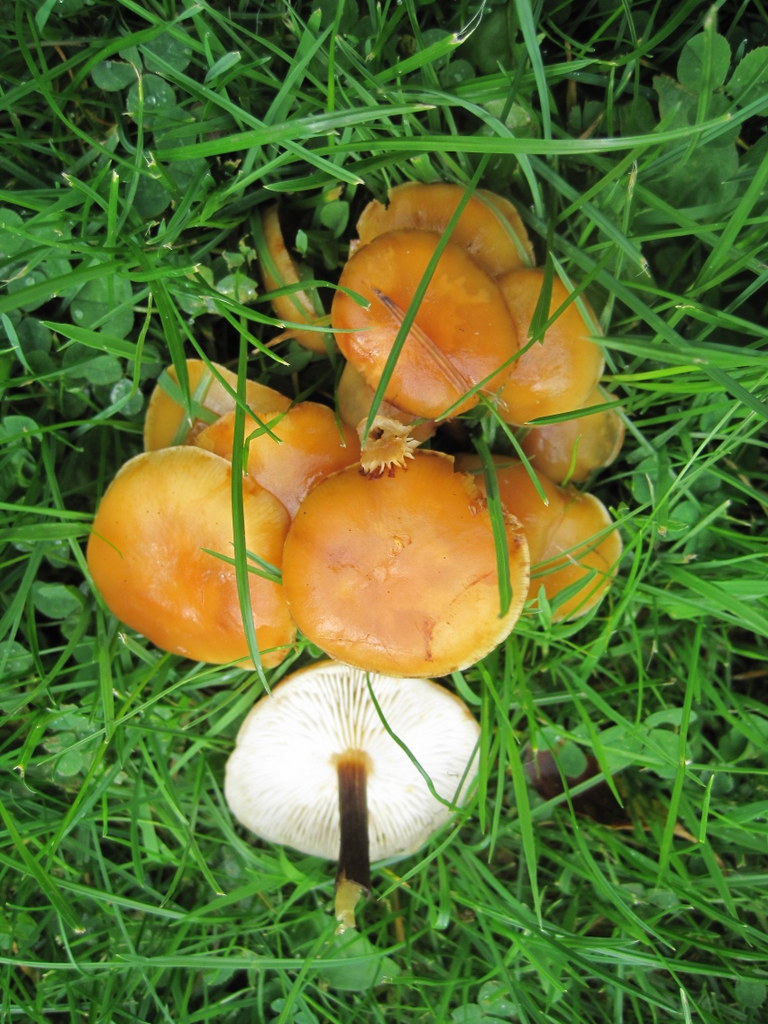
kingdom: Fungi
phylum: Basidiomycota
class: Agaricomycetes
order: Agaricales
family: Omphalotaceae
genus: Collybiopsis
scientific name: Collybiopsis confluens
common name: knippe-fladhat
